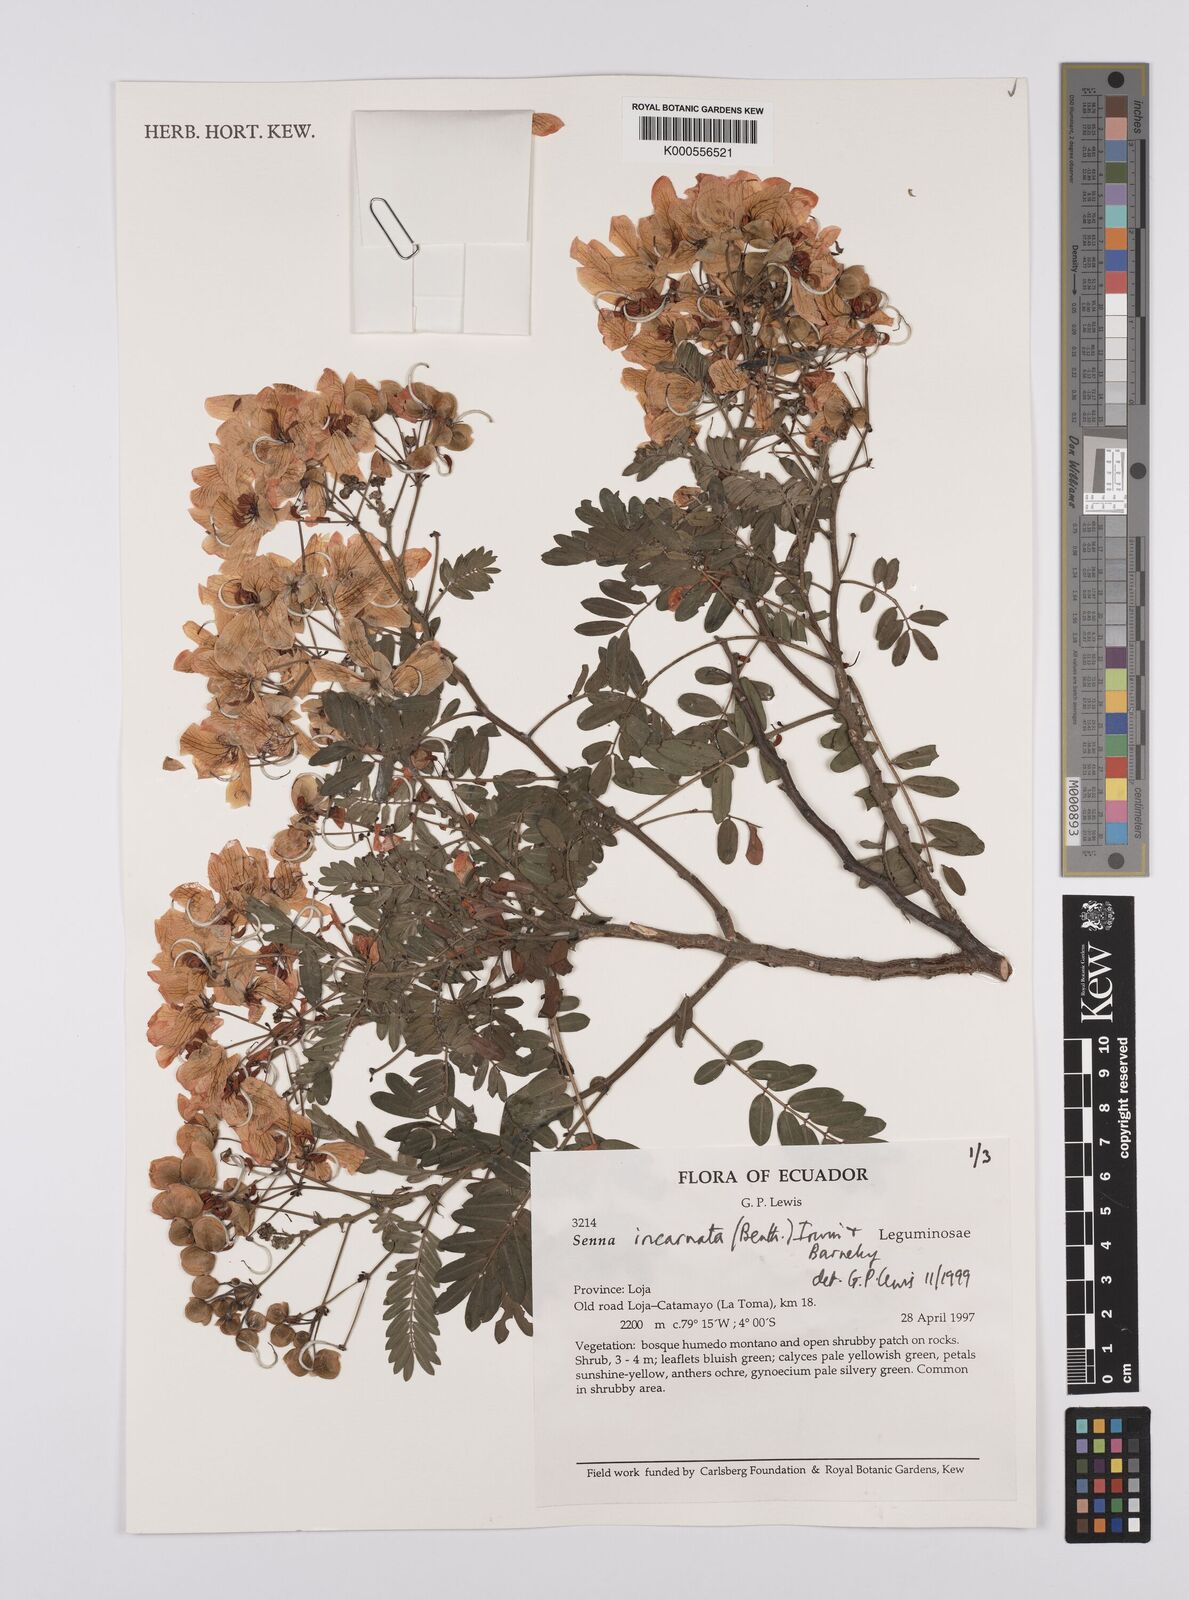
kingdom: Plantae
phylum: Tracheophyta
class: Magnoliopsida
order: Fabales
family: Fabaceae
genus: Senna
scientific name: Senna incarnata
